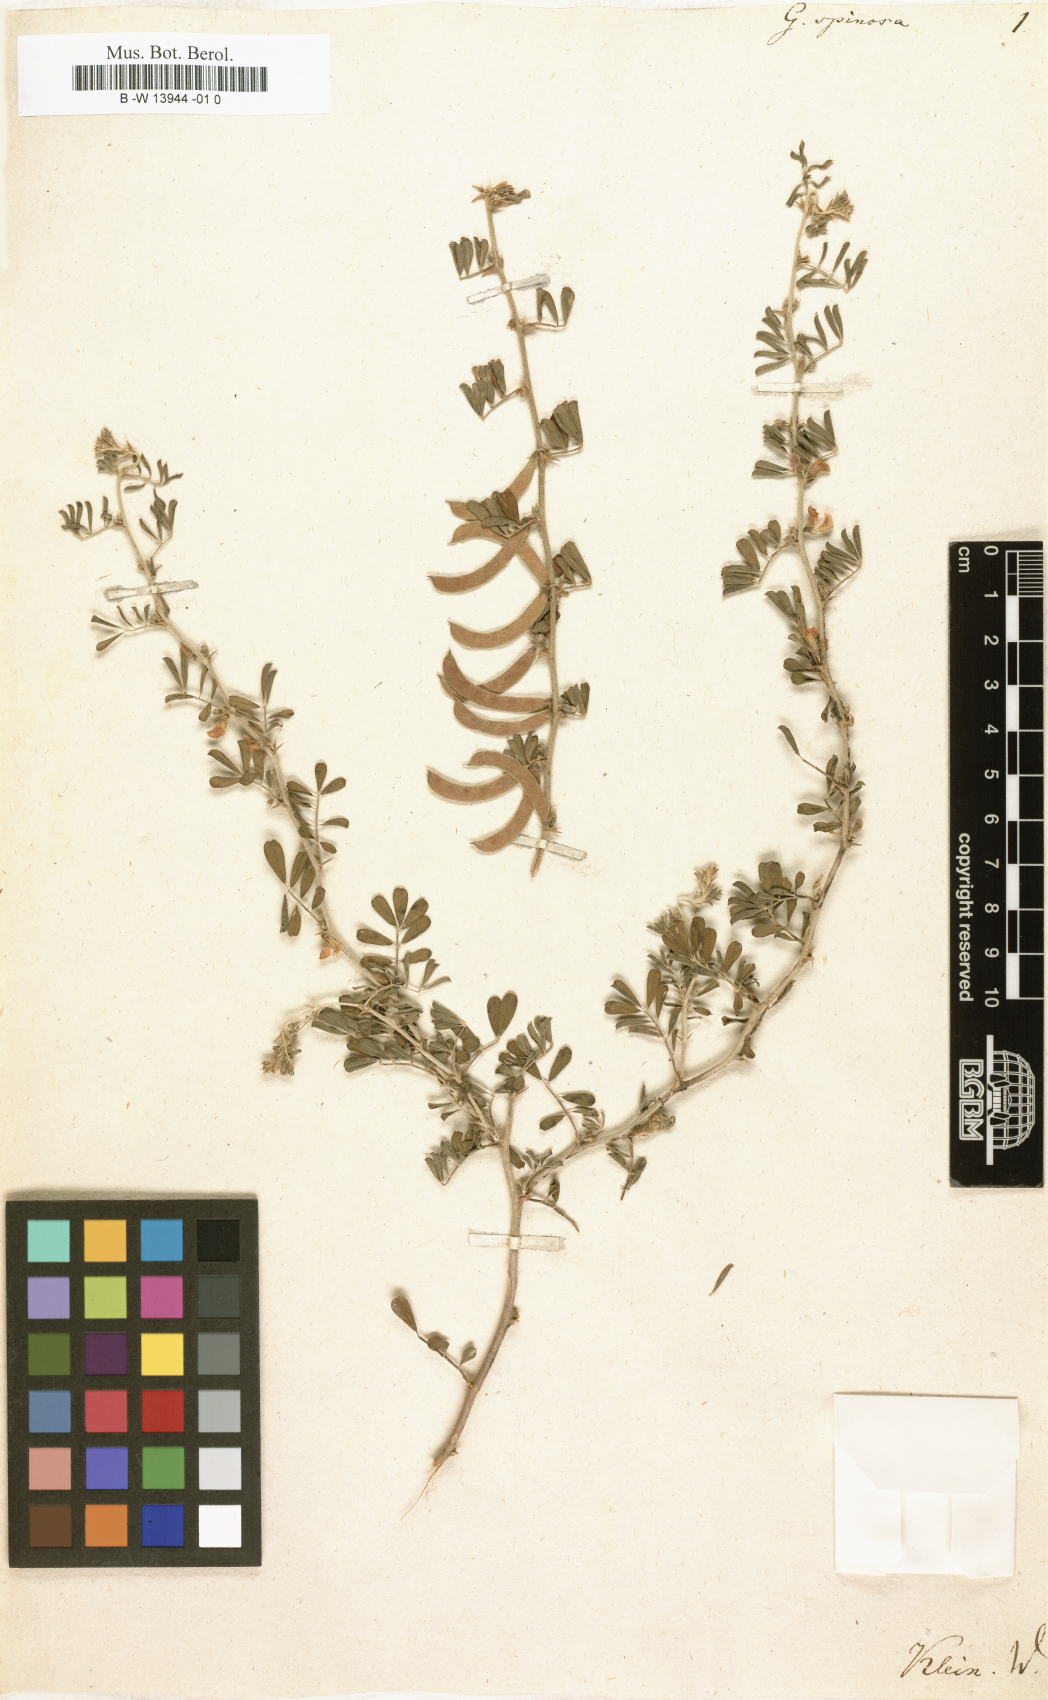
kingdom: Plantae
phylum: Tracheophyta
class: Magnoliopsida
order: Fabales
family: Fabaceae
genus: Tephrosia
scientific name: Tephrosia spinosa
